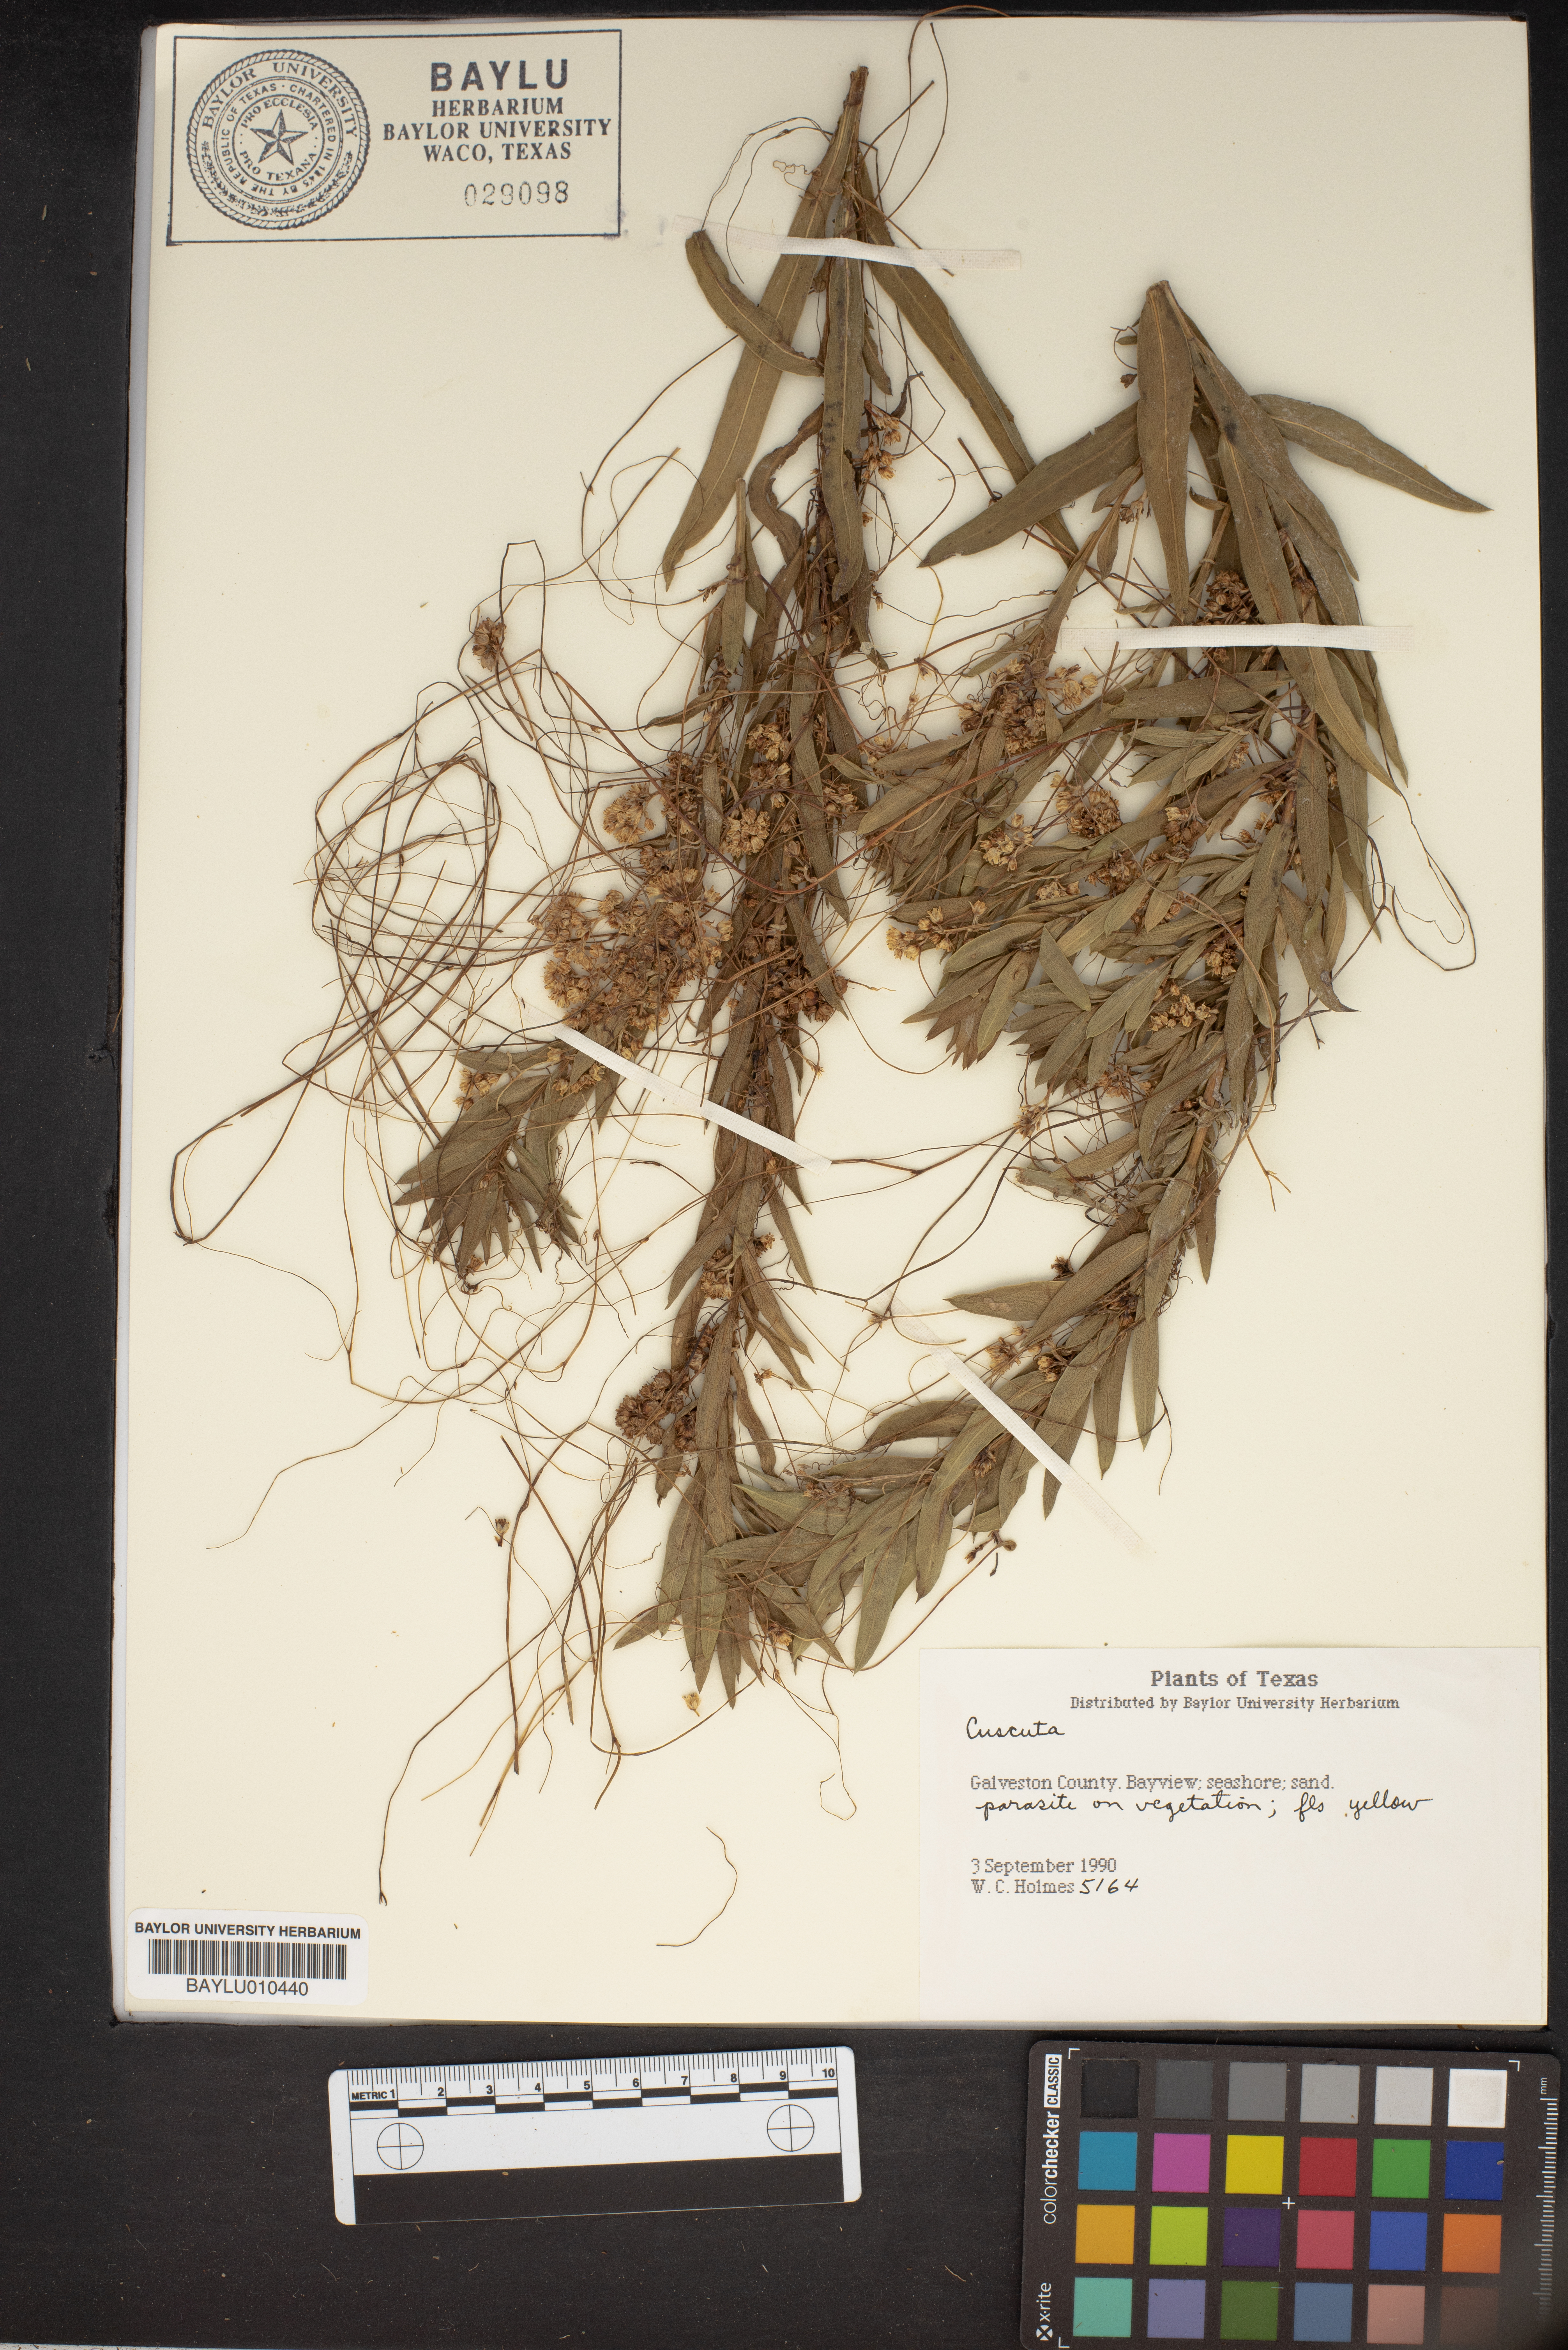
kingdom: Plantae
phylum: Tracheophyta
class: Magnoliopsida
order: Solanales
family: Convolvulaceae
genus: Cuscuta
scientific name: Cuscuta
